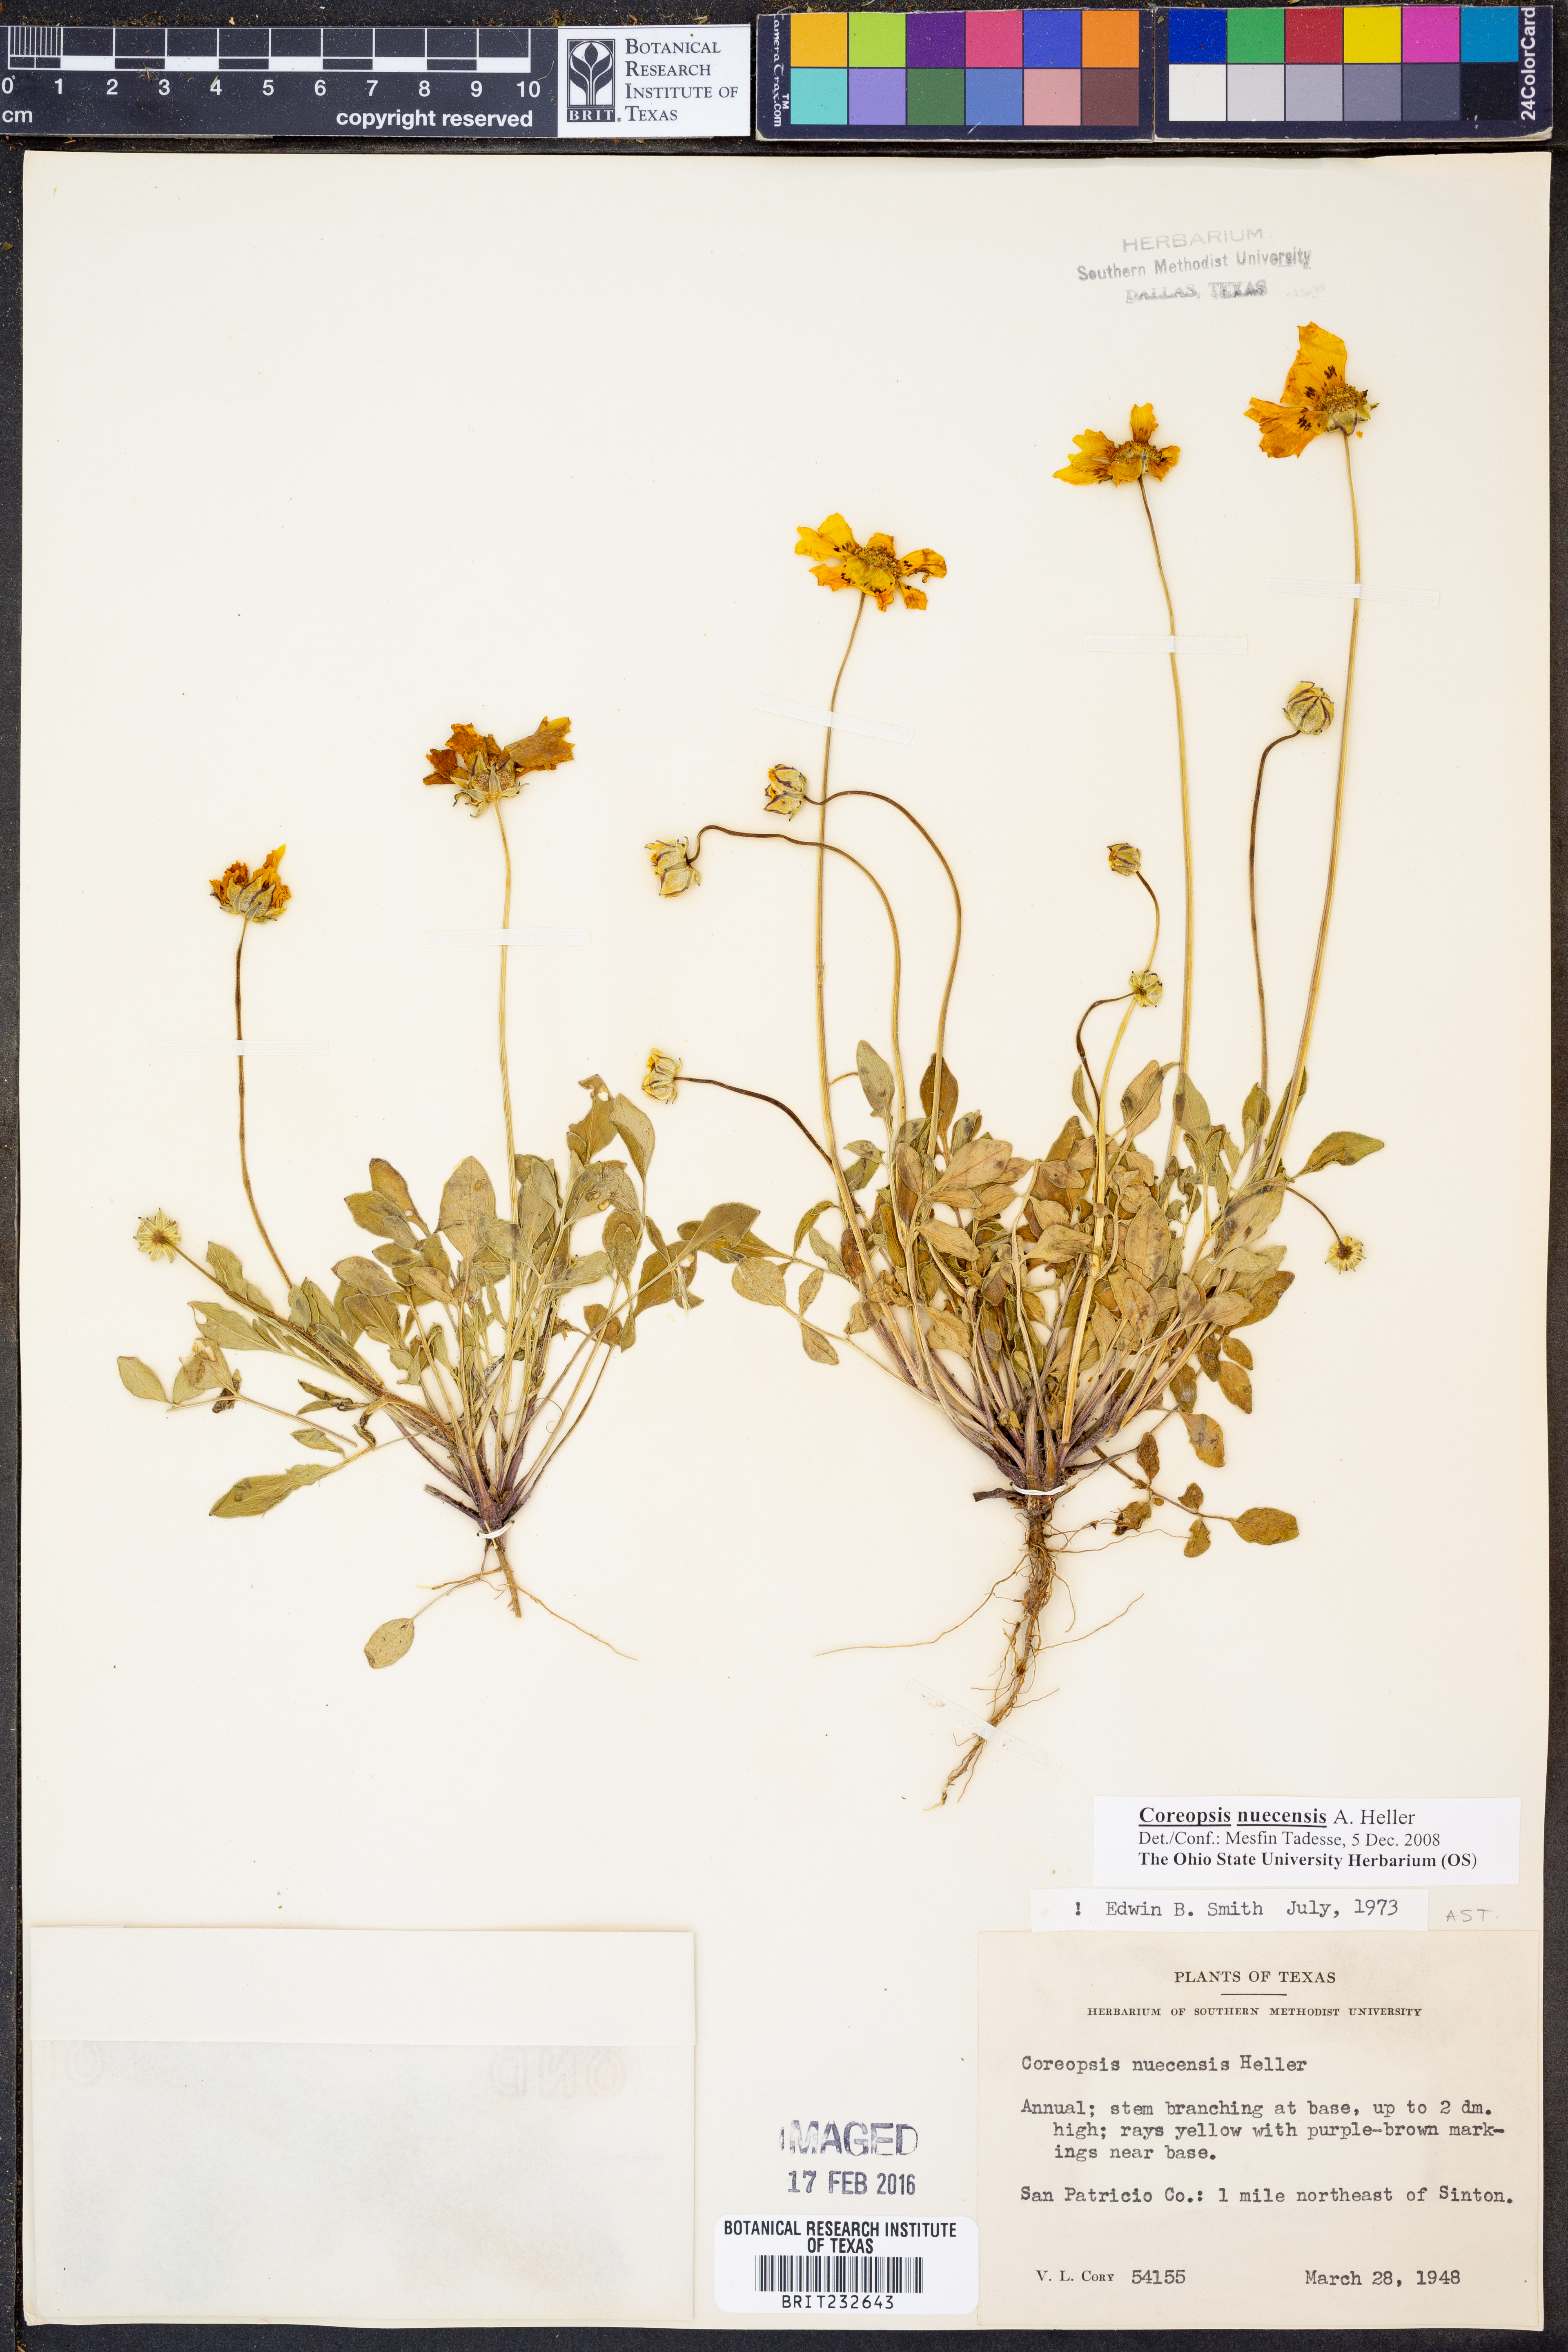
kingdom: Plantae
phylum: Tracheophyta
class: Magnoliopsida
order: Asterales
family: Asteraceae
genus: Coreopsis
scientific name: Coreopsis nuecensis
